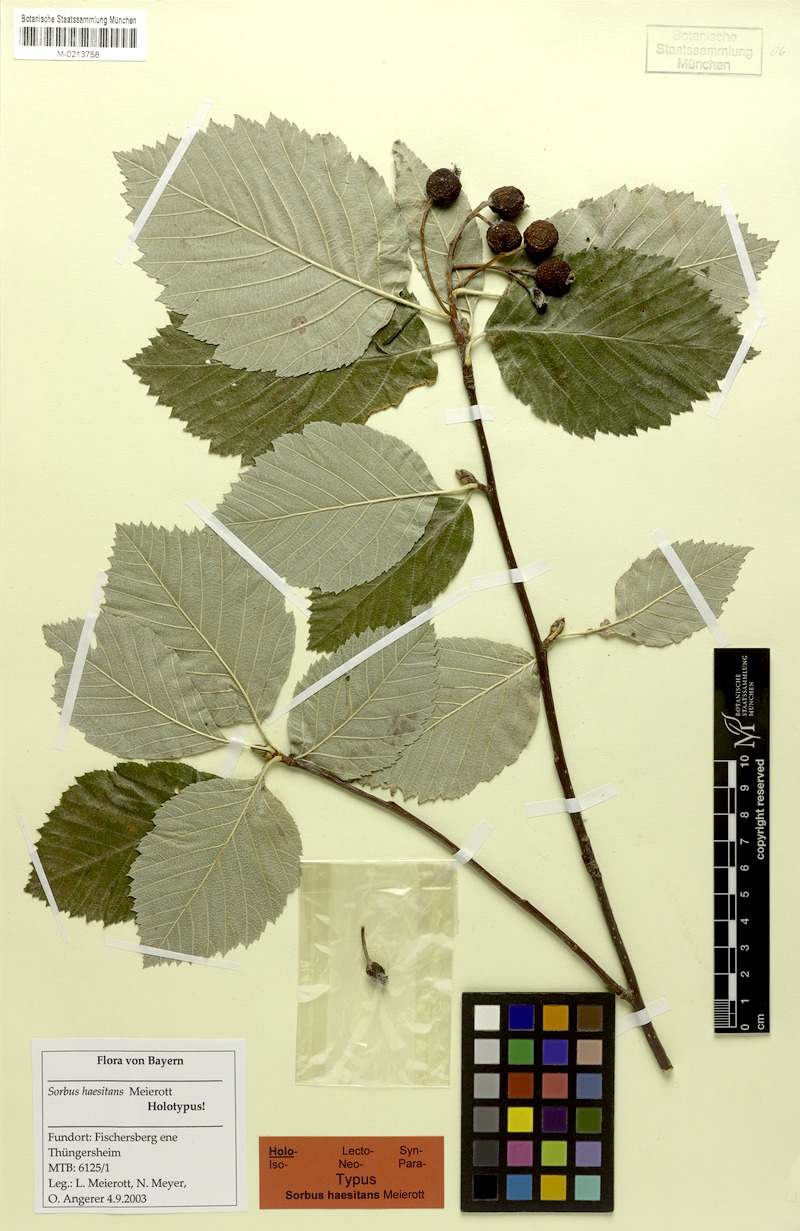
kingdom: Plantae
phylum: Tracheophyta
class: Magnoliopsida
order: Rosales
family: Rosaceae
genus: Karpatiosorbus
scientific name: Karpatiosorbus haesitans
